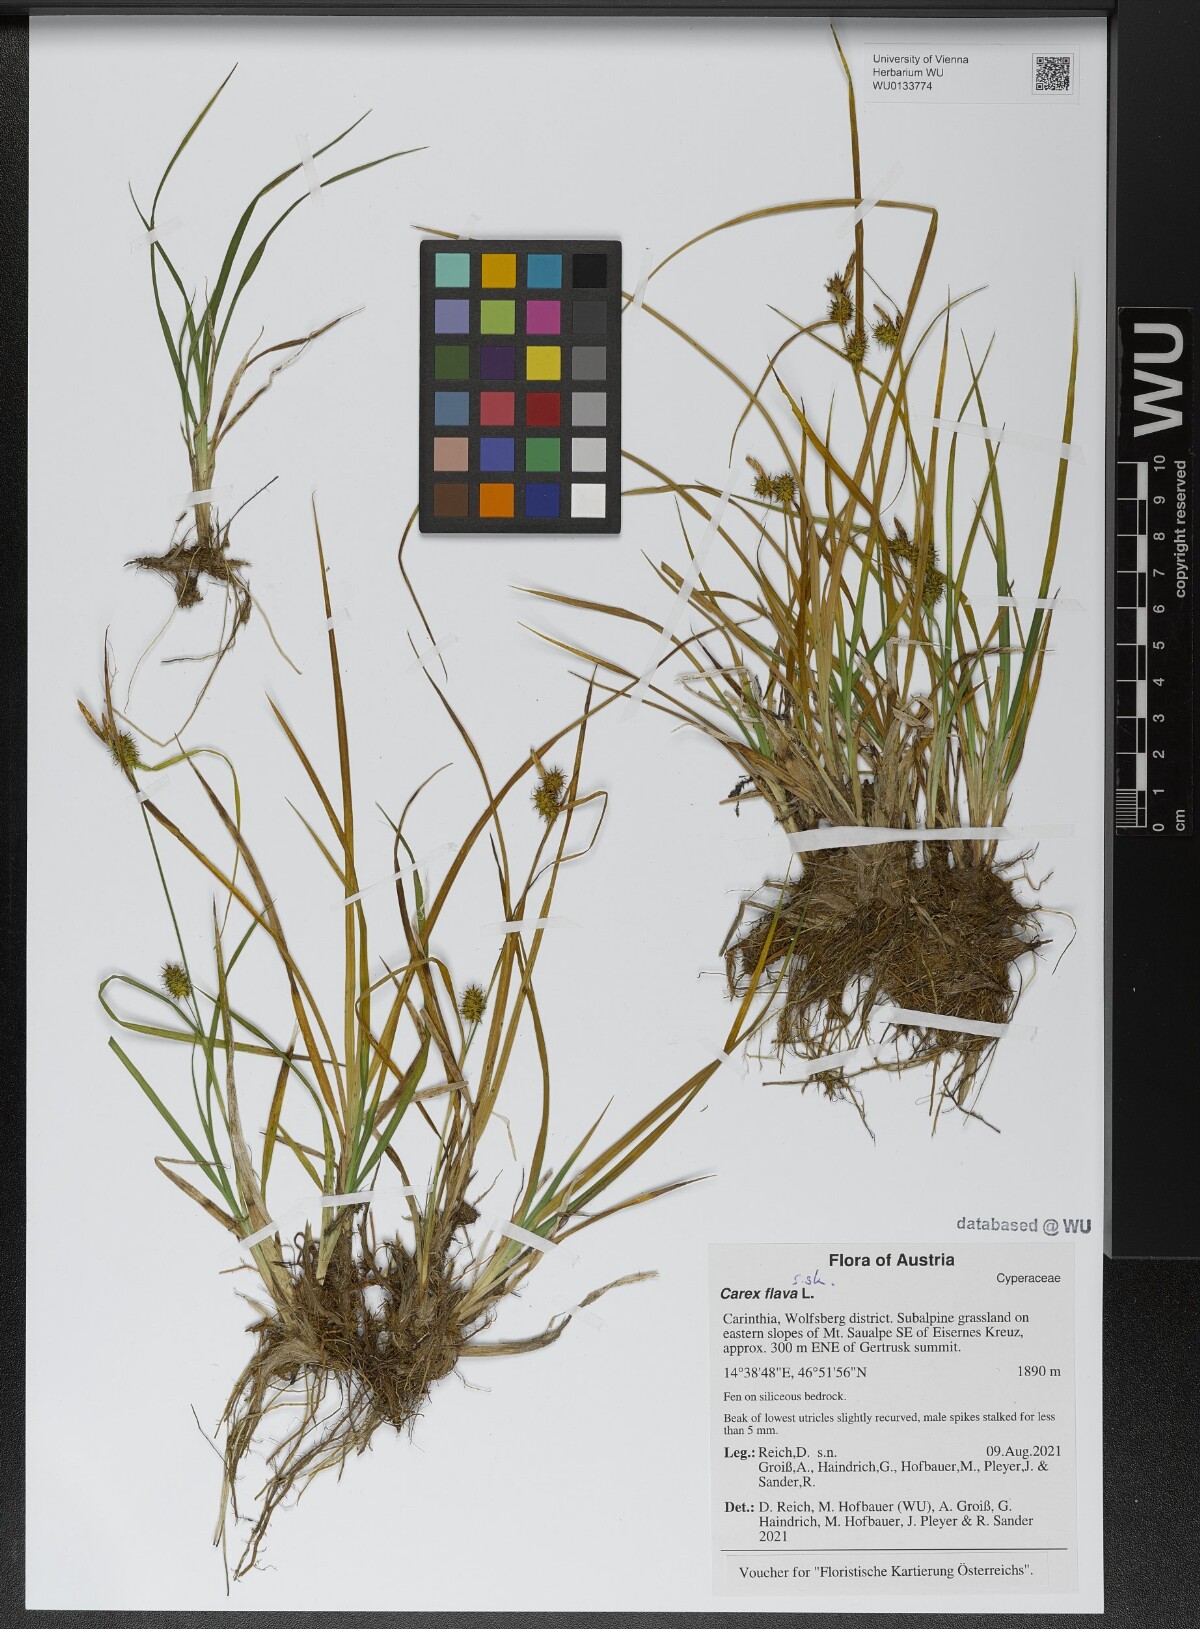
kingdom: Plantae
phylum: Tracheophyta
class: Liliopsida
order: Poales
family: Cyperaceae
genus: Carex
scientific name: Carex flava
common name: Large yellow-sedge
